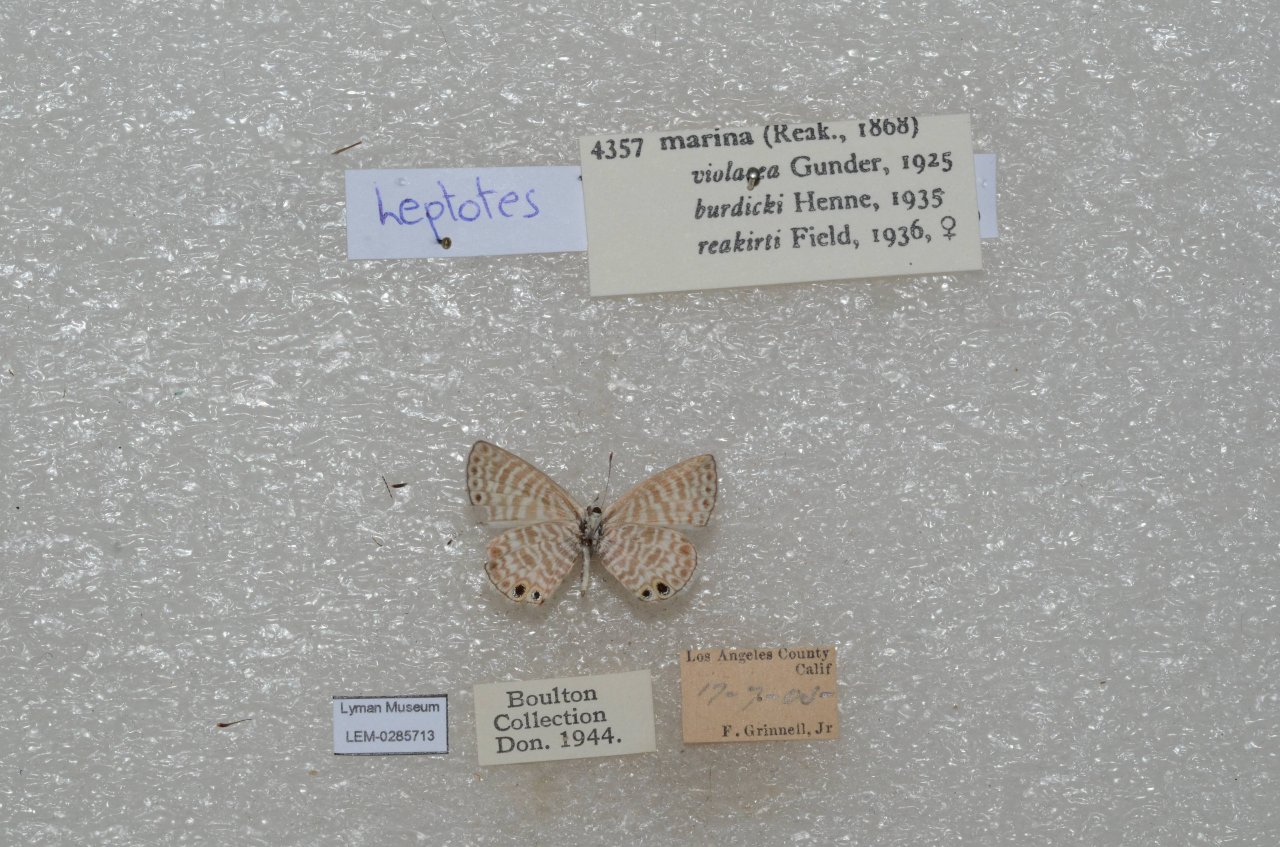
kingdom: Animalia
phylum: Arthropoda
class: Insecta
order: Lepidoptera
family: Lycaenidae
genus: Leptotes
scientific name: Leptotes marina
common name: Marine Blue
